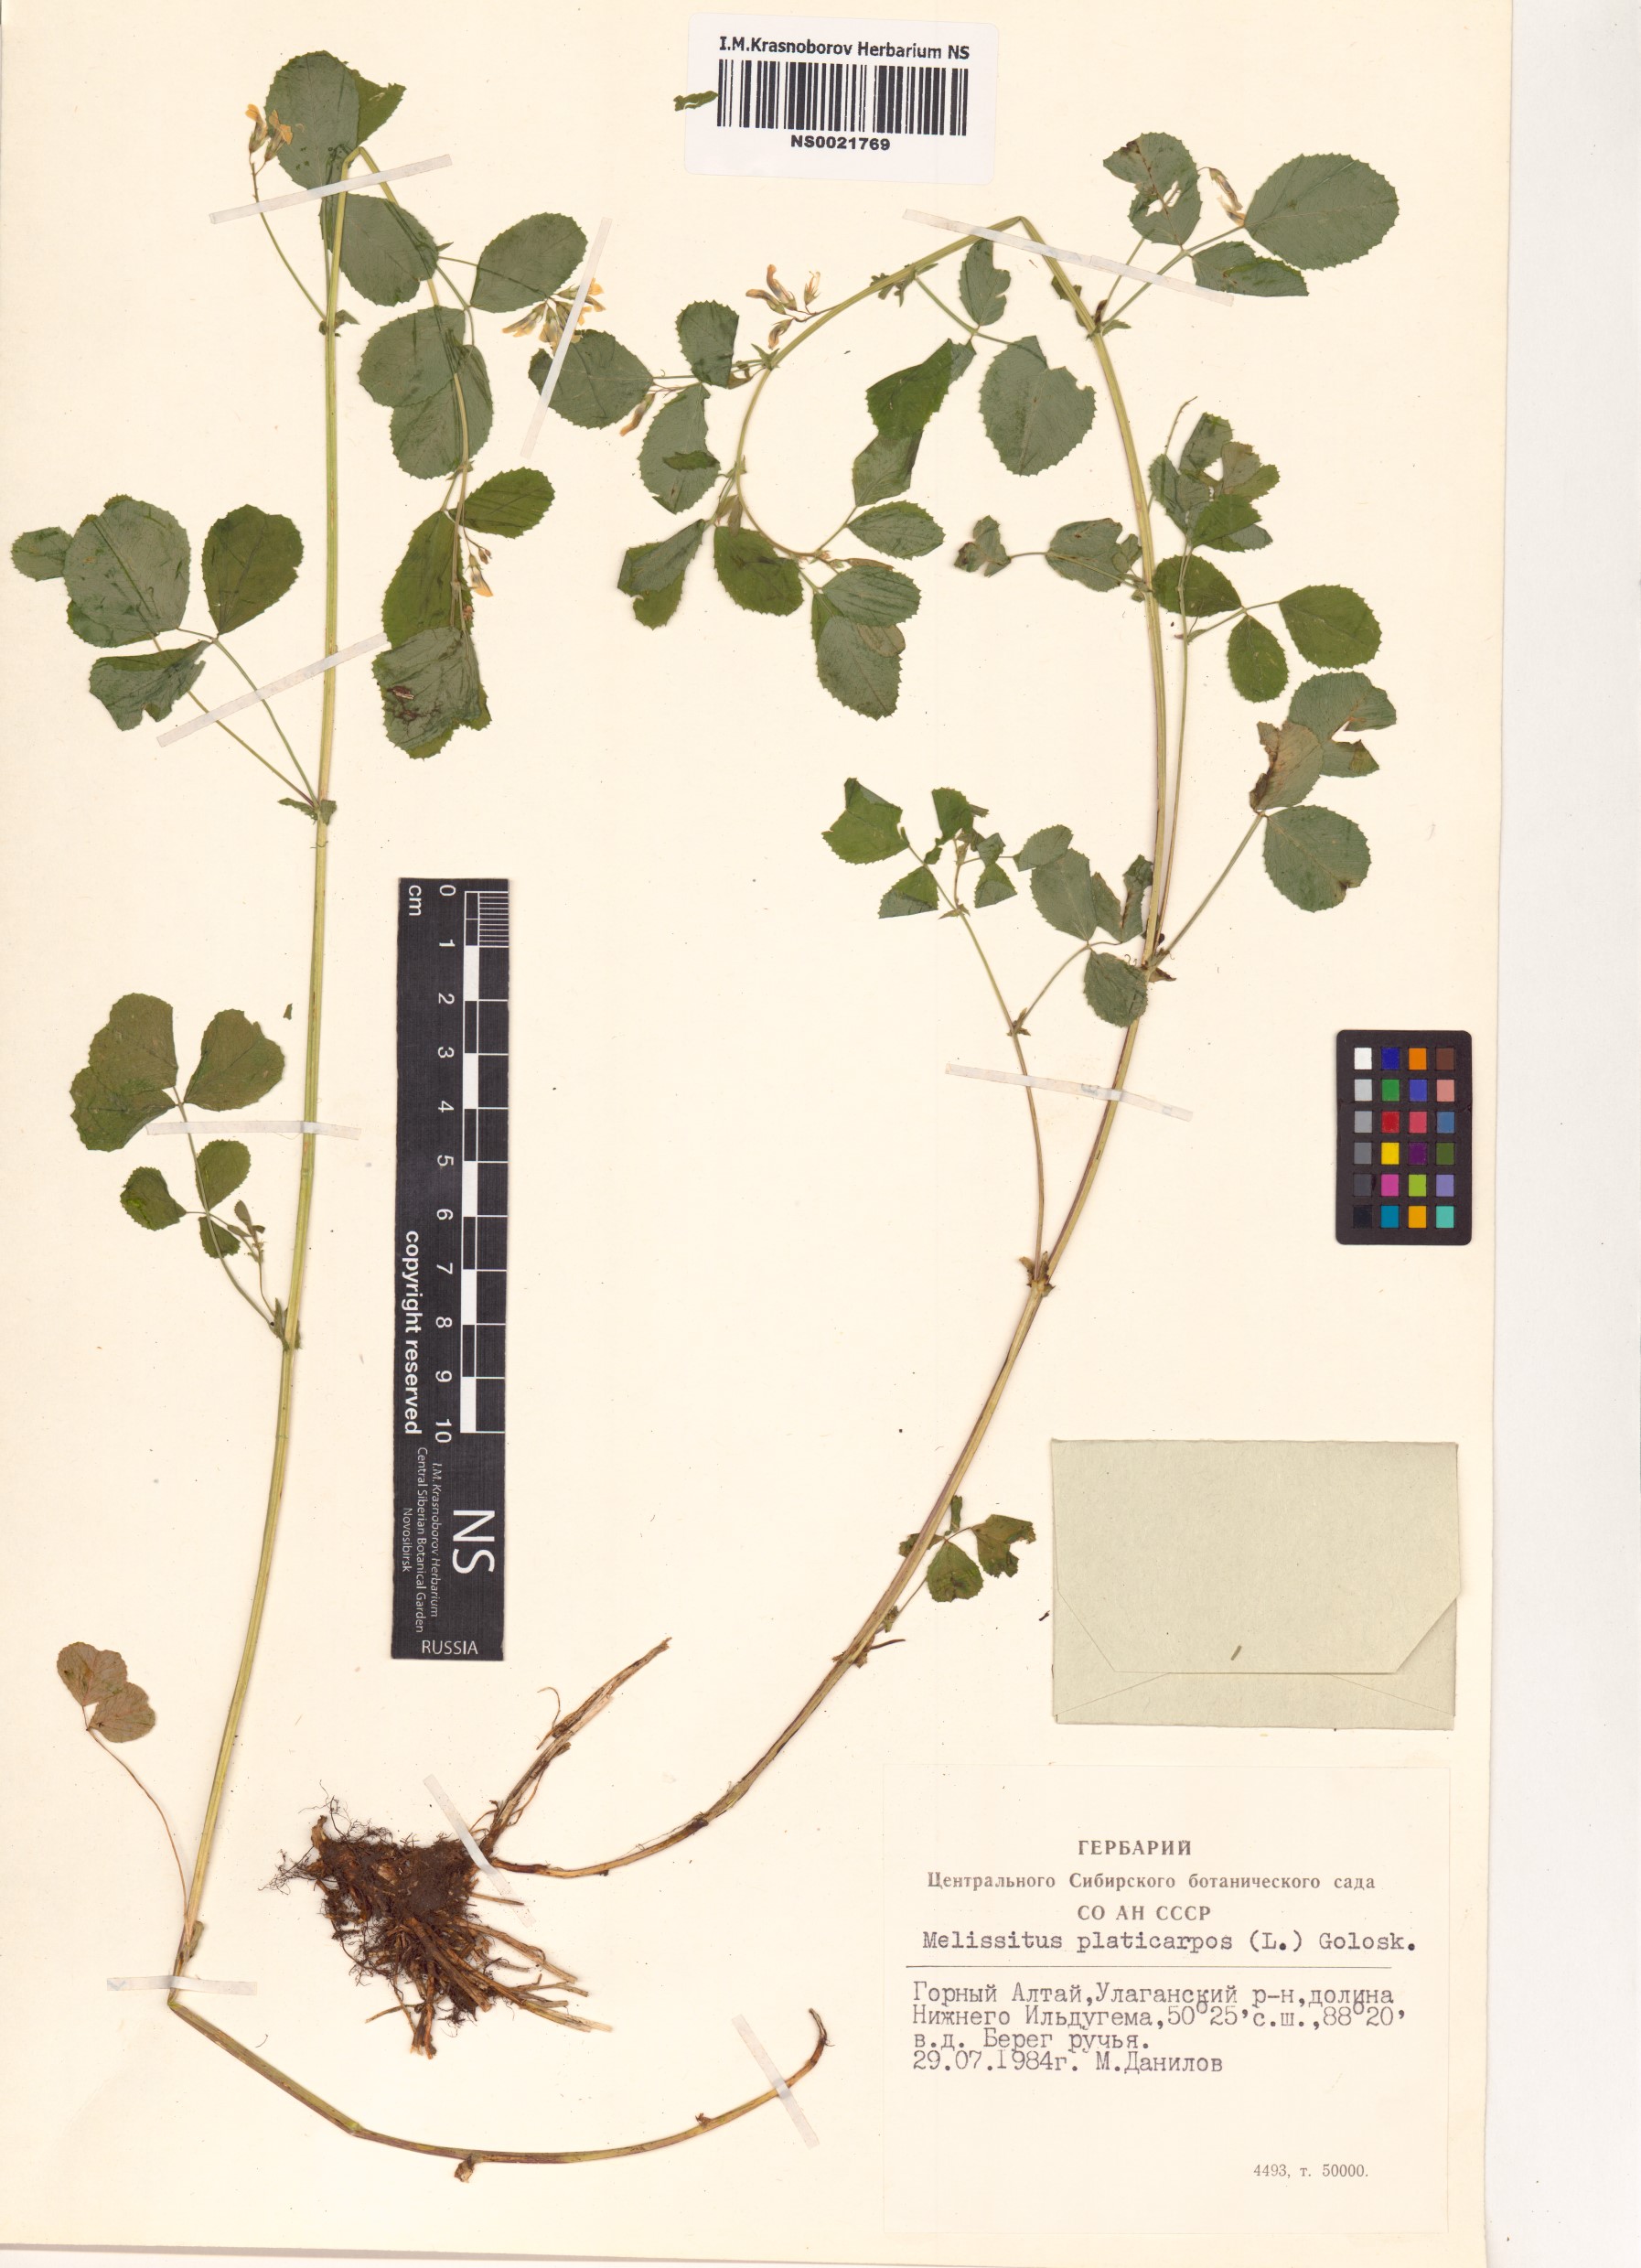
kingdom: Plantae
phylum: Tracheophyta
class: Magnoliopsida
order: Fabales
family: Fabaceae
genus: Medicago
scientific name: Medicago platycarpos
